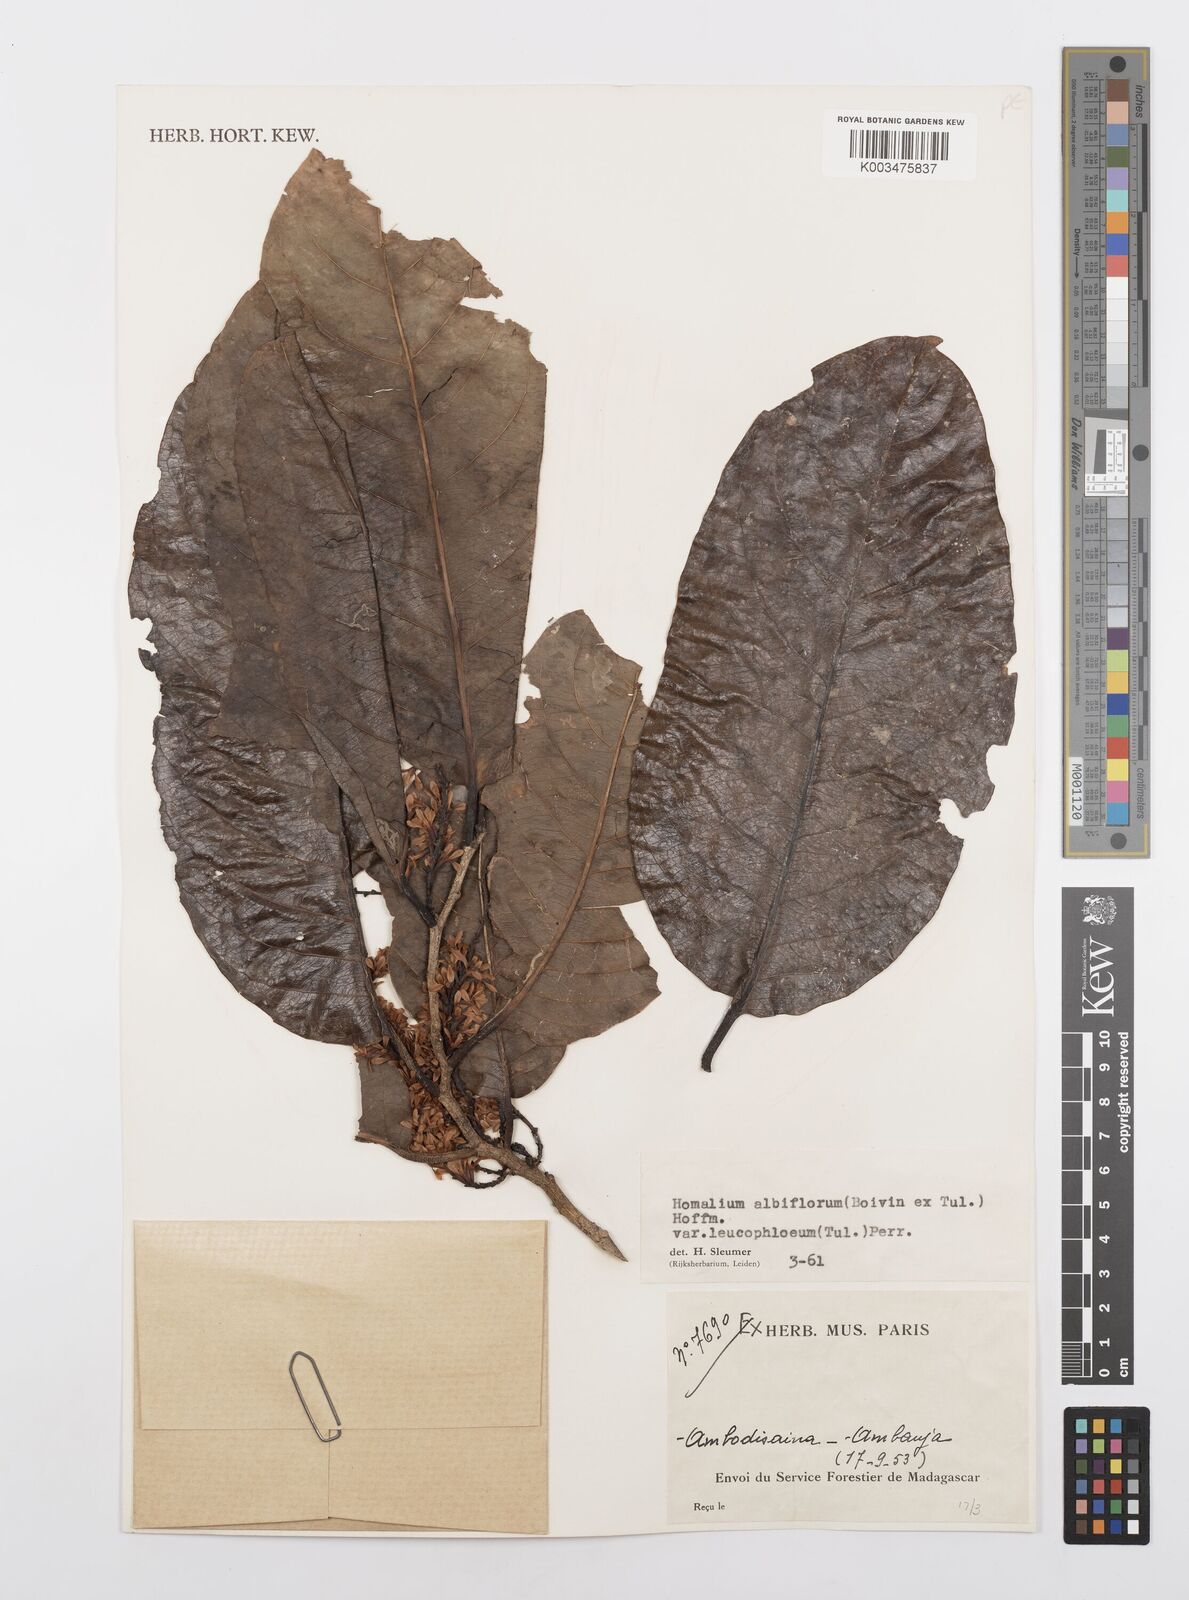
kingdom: Plantae
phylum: Tracheophyta
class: Magnoliopsida
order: Malpighiales
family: Salicaceae
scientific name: Salicaceae
